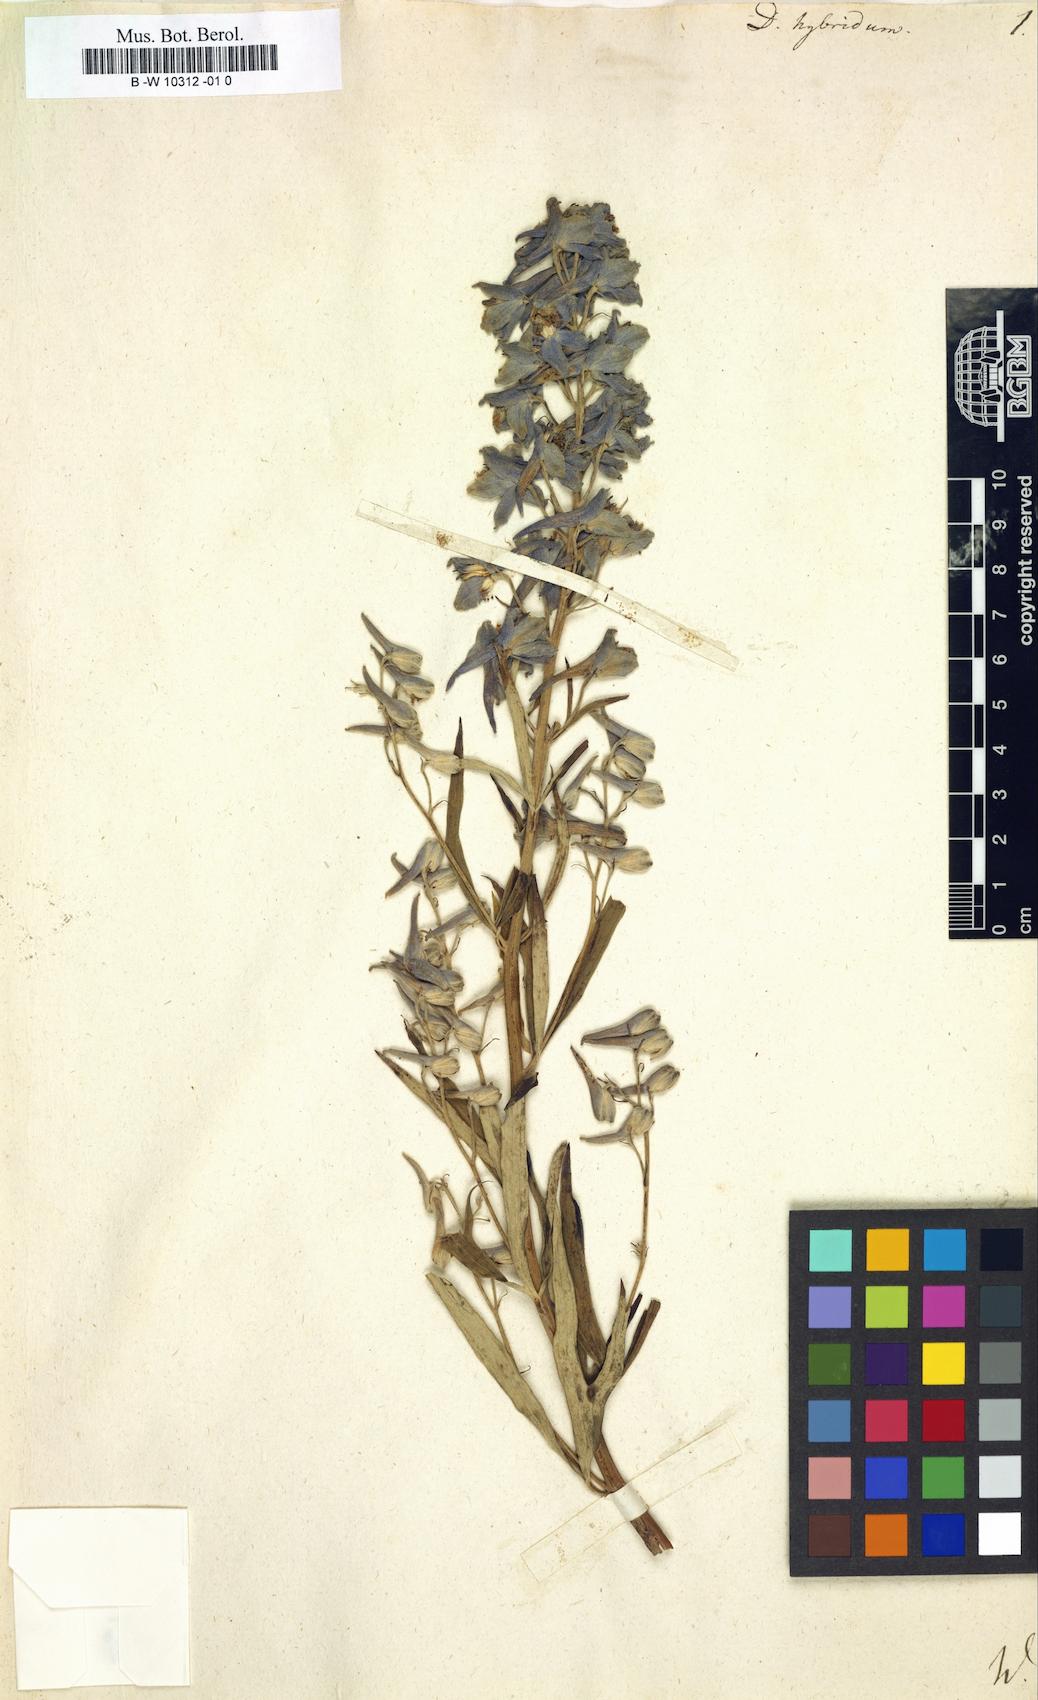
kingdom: Plantae
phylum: Tracheophyta
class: Magnoliopsida
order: Ranunculales
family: Ranunculaceae
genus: Delphinium
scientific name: Delphinium schmalhausenii
